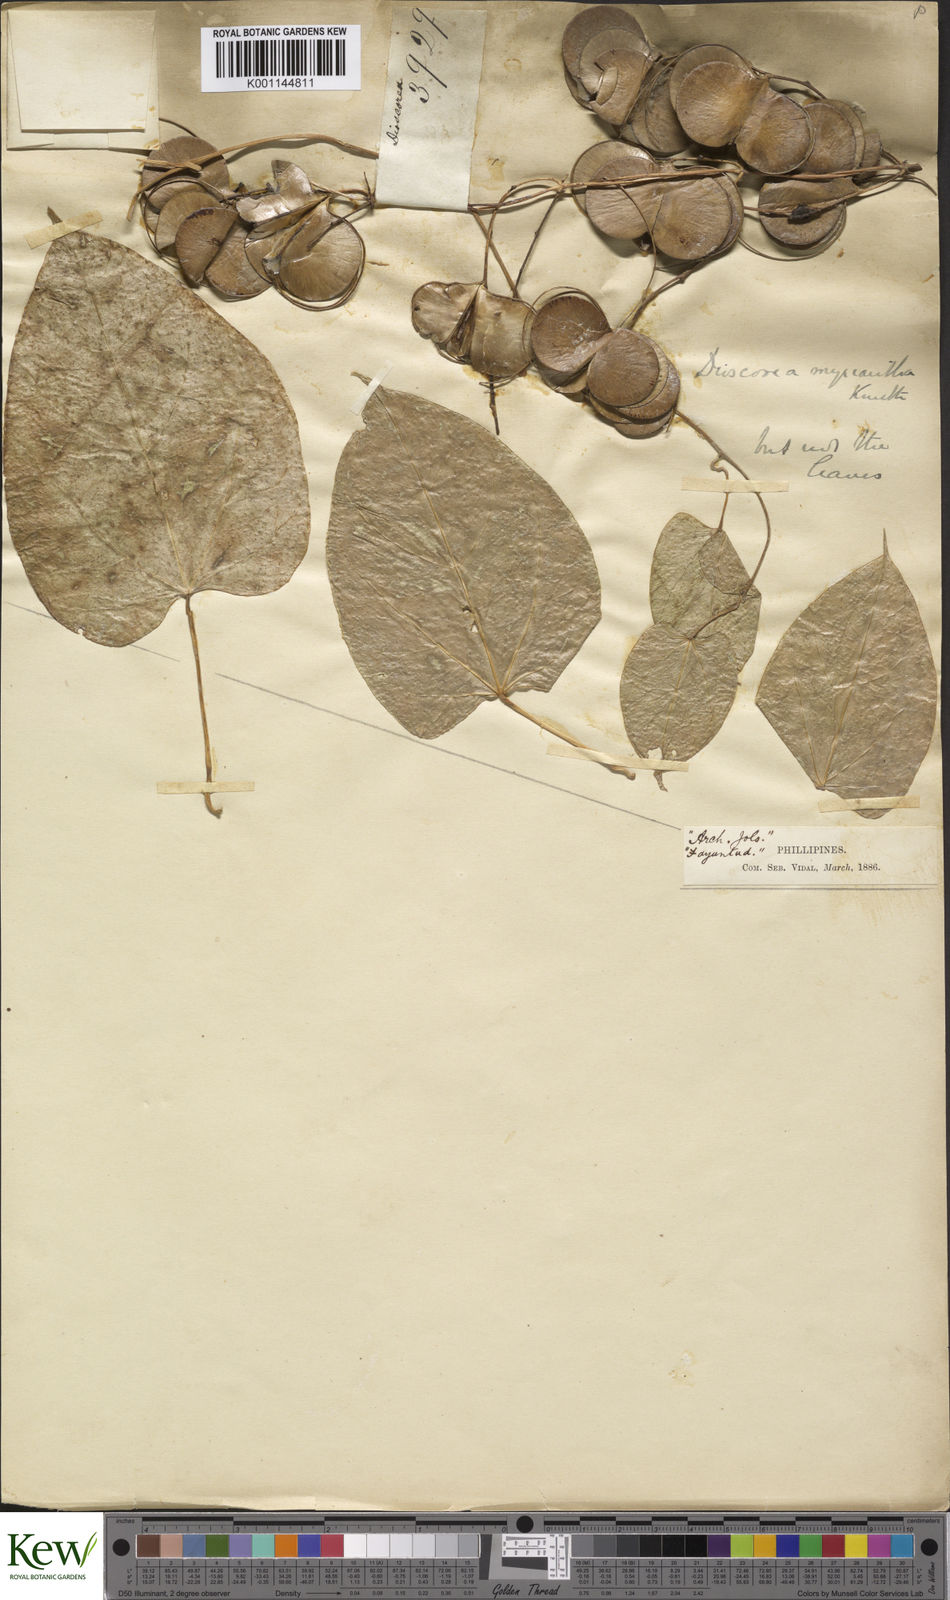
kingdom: Plantae
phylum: Tracheophyta
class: Liliopsida
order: Dioscoreales
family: Dioscoreaceae
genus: Dioscorea
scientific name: Dioscorea filiformis
